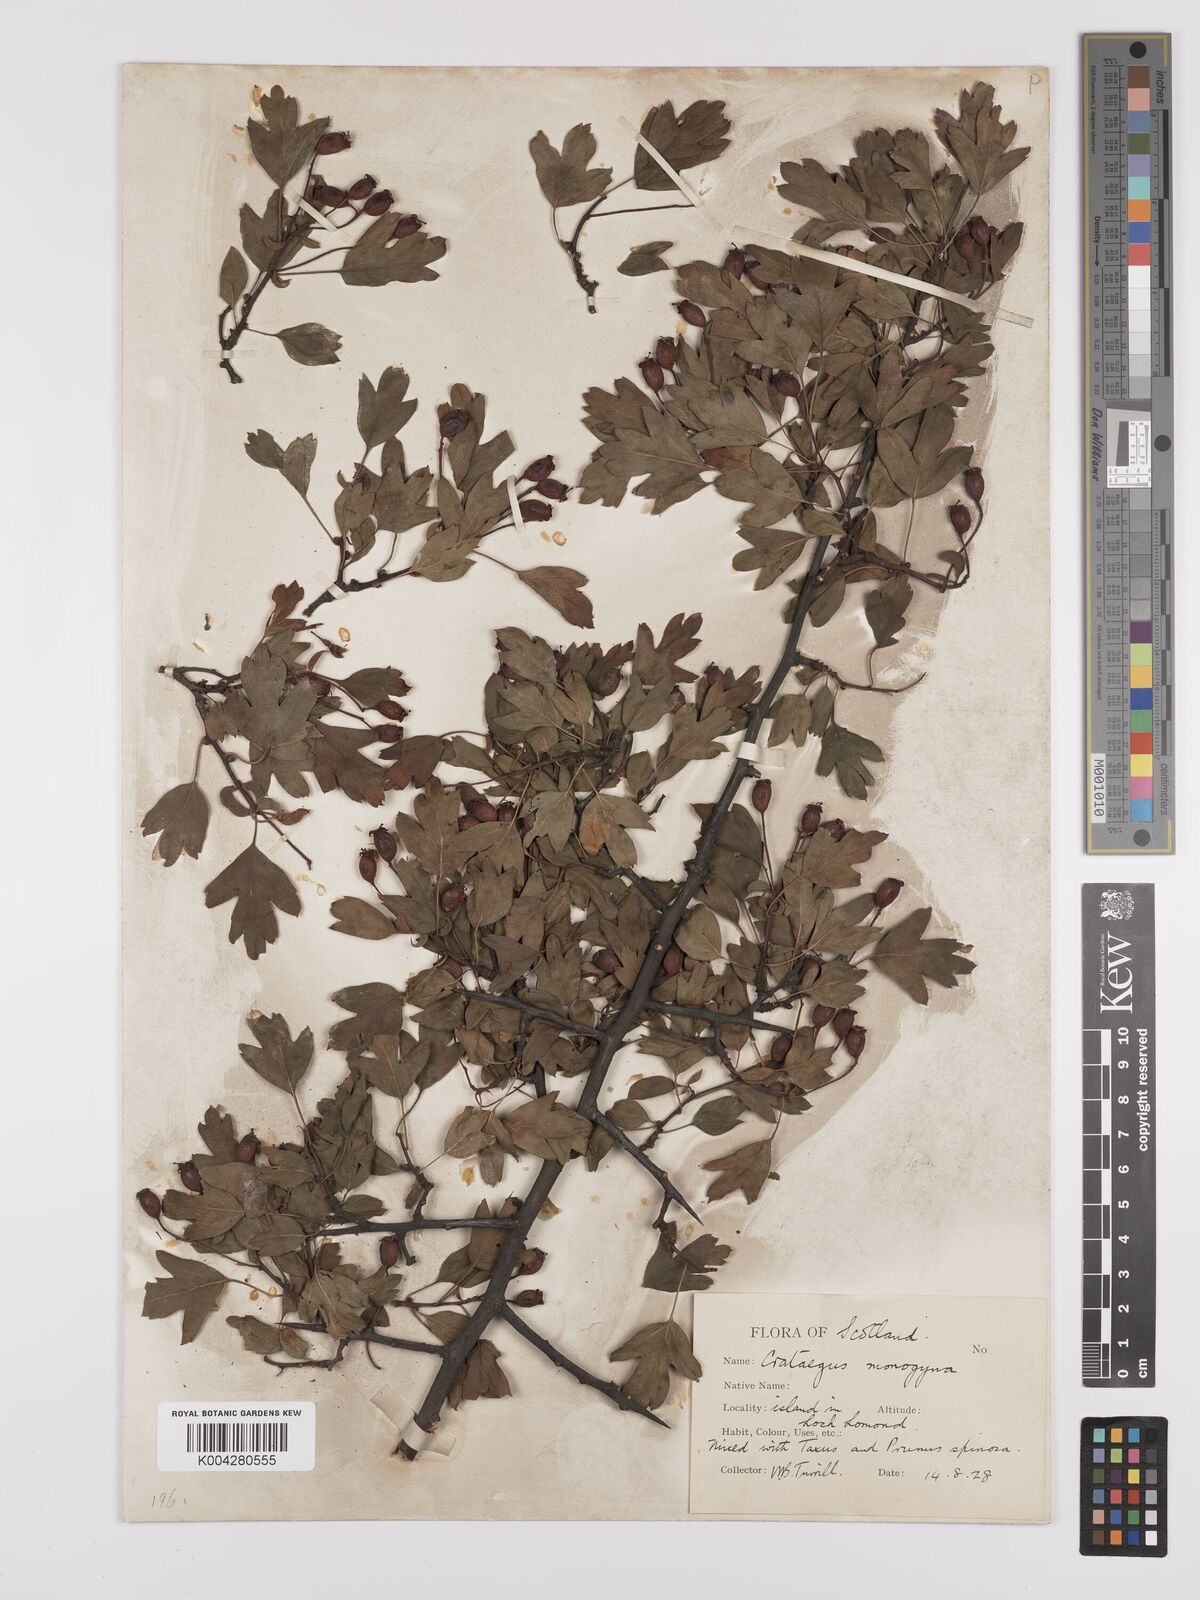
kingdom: Plantae
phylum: Tracheophyta
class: Magnoliopsida
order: Rosales
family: Rosaceae
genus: Crataegus
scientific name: Crataegus monogyna
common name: Hawthorn
